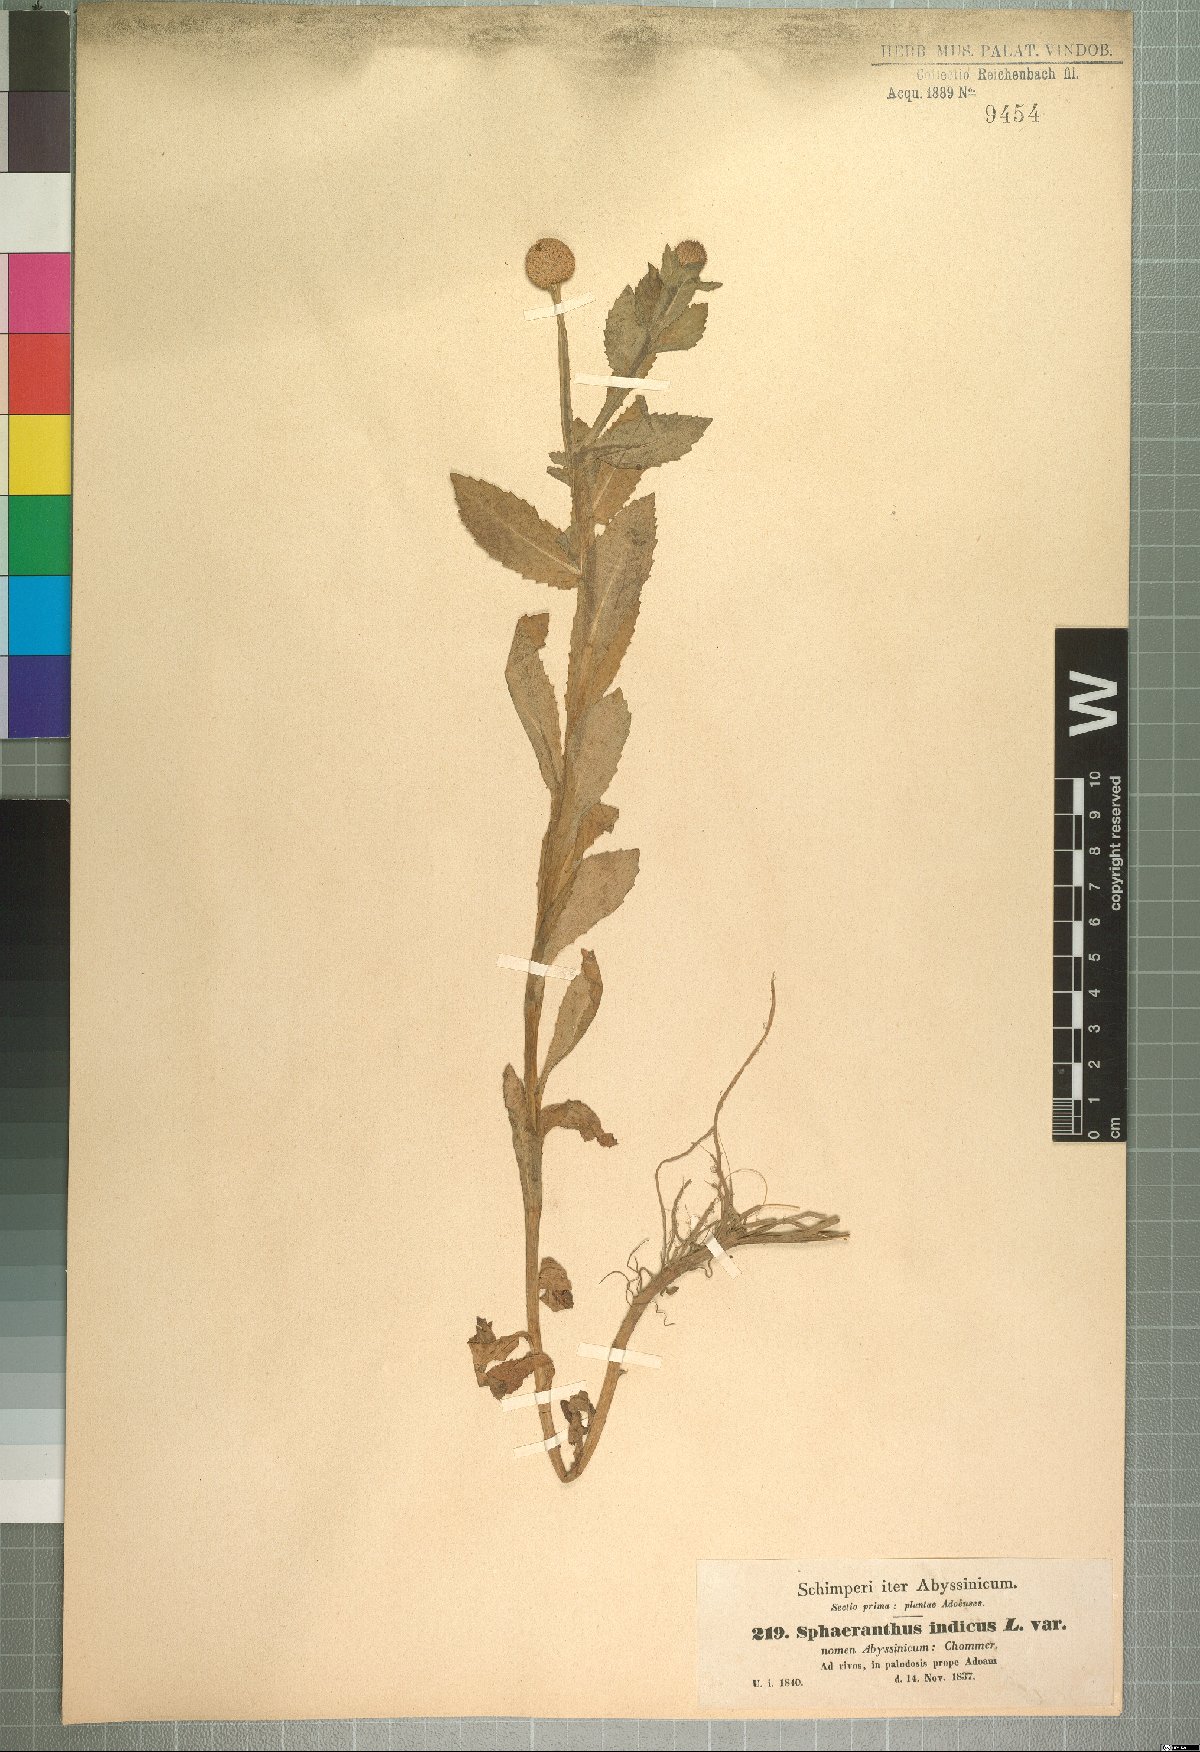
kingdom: Plantae
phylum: Tracheophyta
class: Magnoliopsida
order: Asterales
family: Asteraceae
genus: Sphaeranthus
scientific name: Sphaeranthus suaveolens
